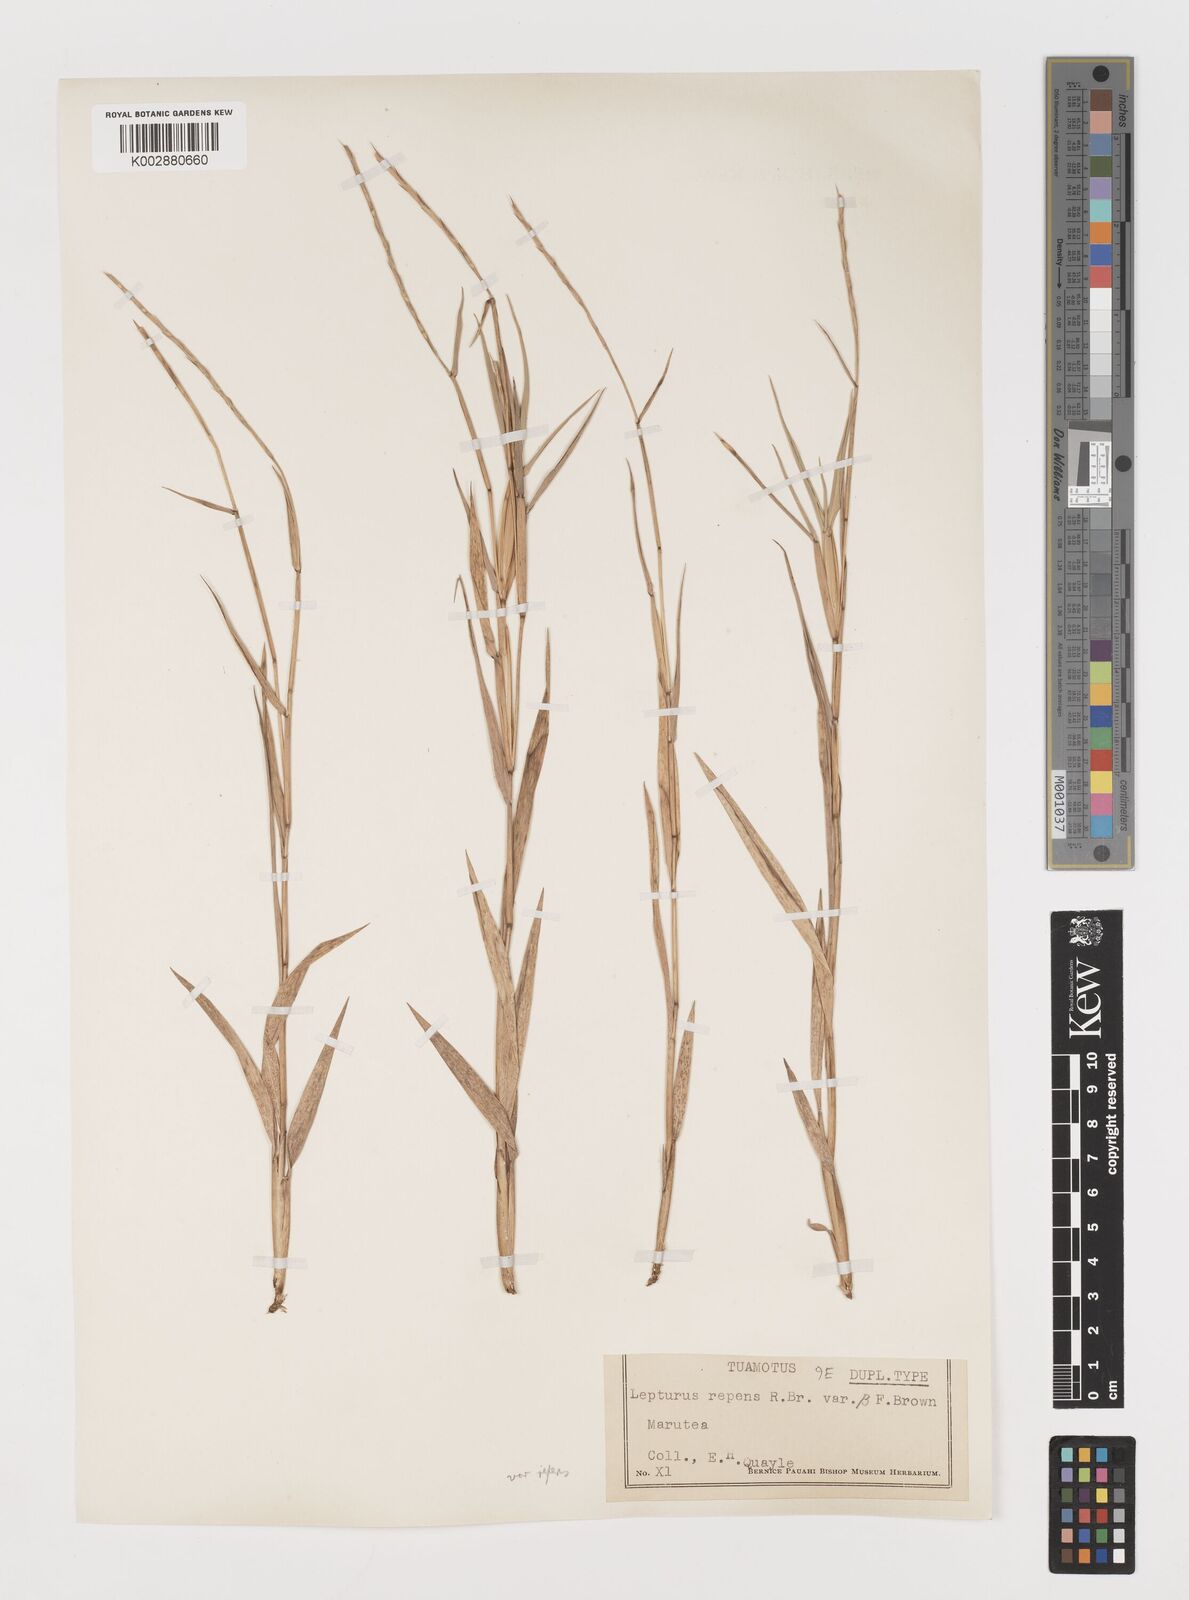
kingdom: Plantae
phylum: Tracheophyta
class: Liliopsida
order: Poales
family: Poaceae
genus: Lepturus
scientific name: Lepturus repens
